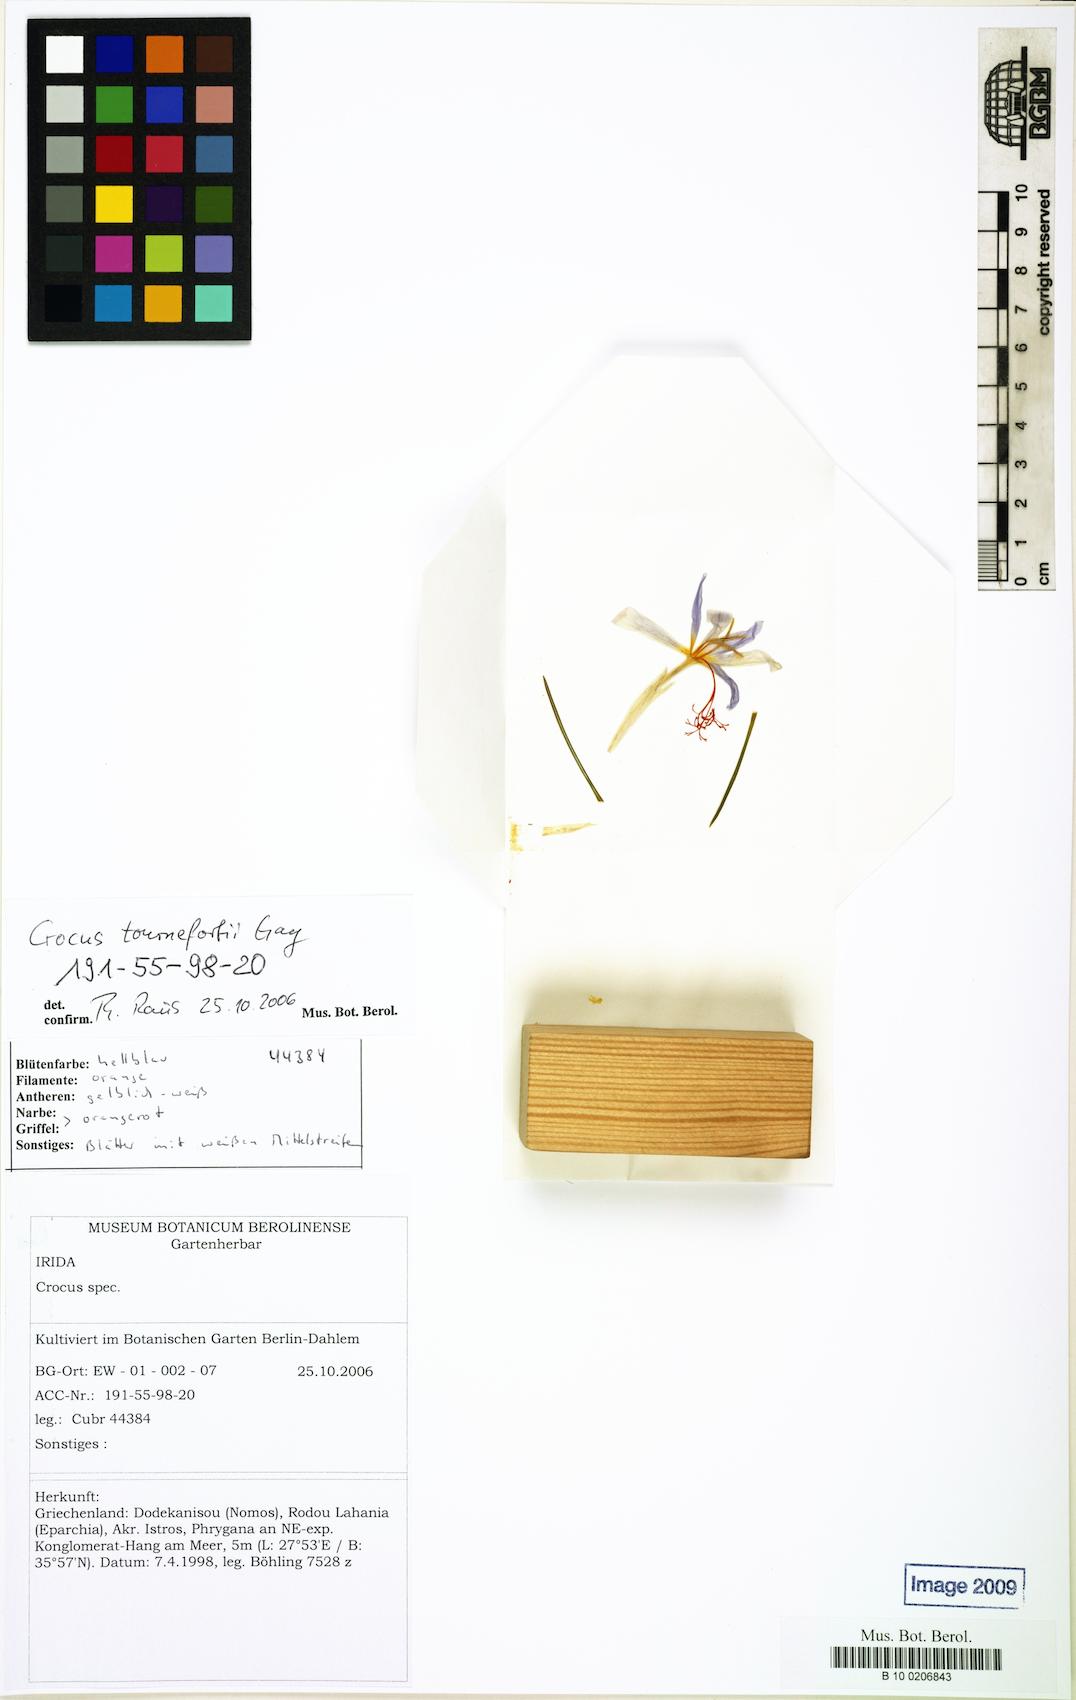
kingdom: Plantae
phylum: Tracheophyta
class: Liliopsida
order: Asparagales
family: Iridaceae
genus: Crocus
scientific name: Crocus tournefortii
